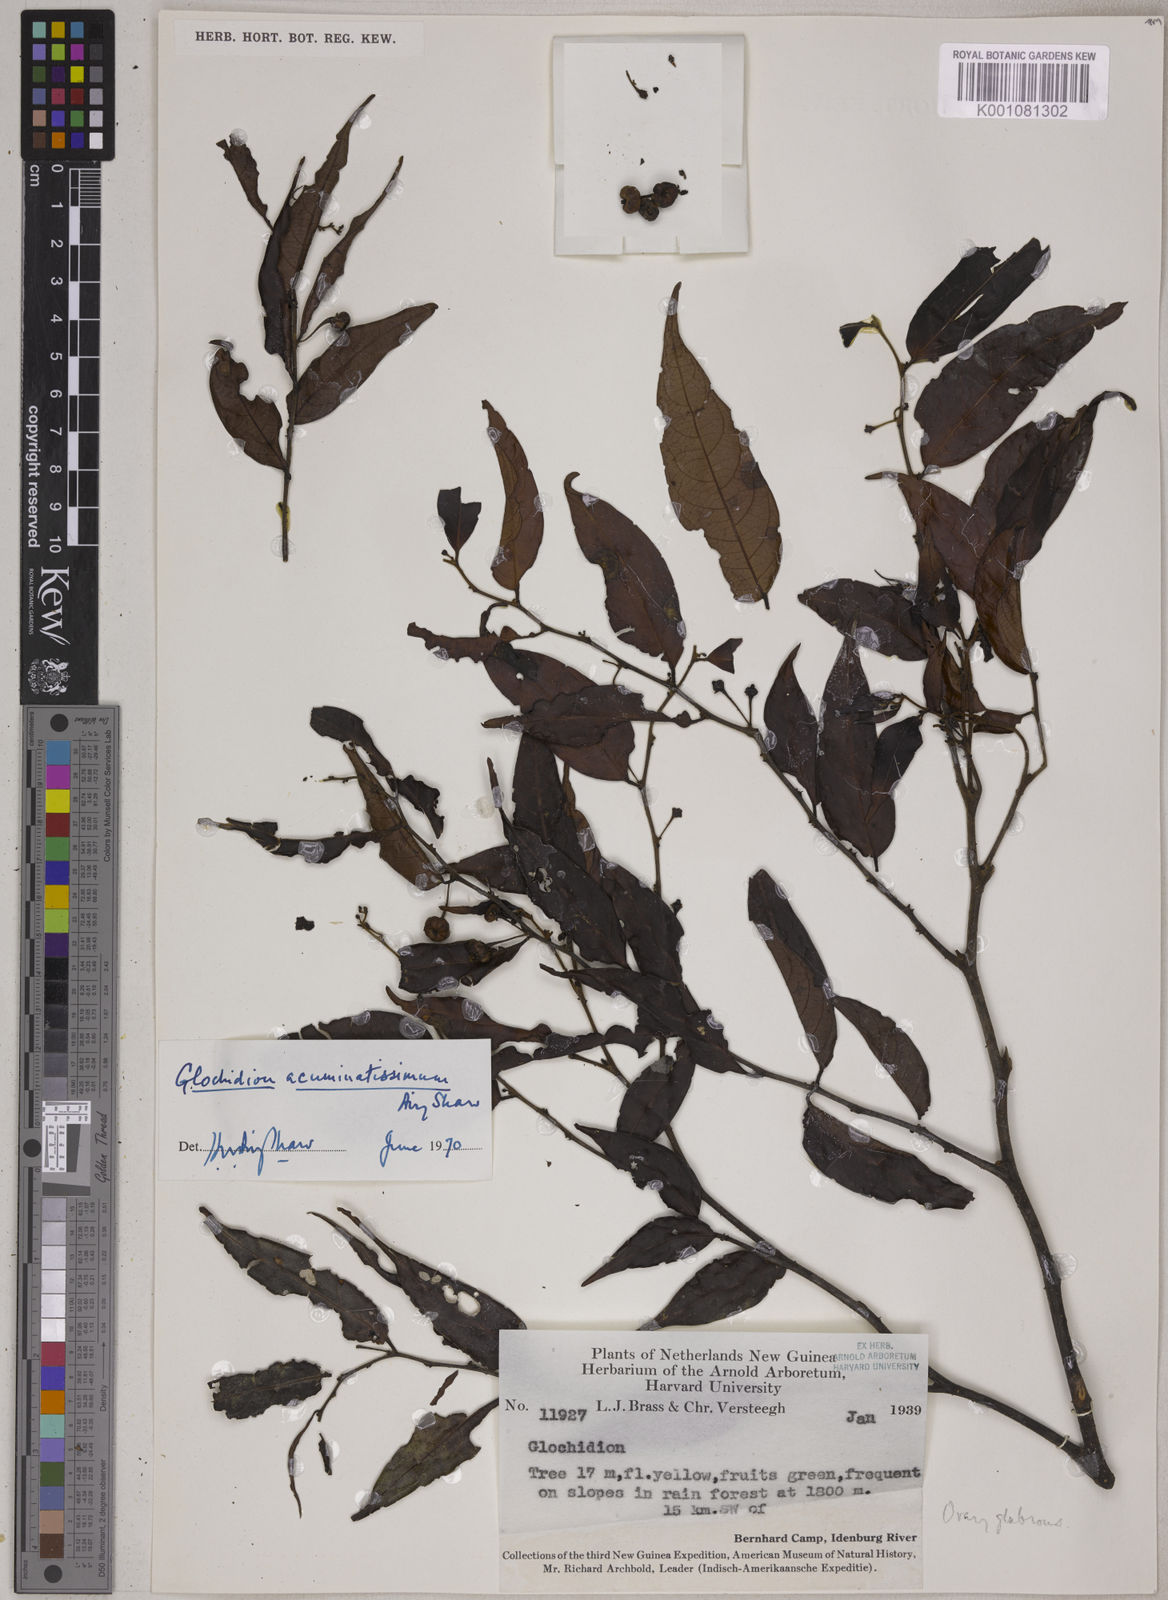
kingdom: Plantae
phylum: Tracheophyta
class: Magnoliopsida
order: Malpighiales
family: Phyllanthaceae
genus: Glochidion
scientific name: Glochidion acuminatissimum
